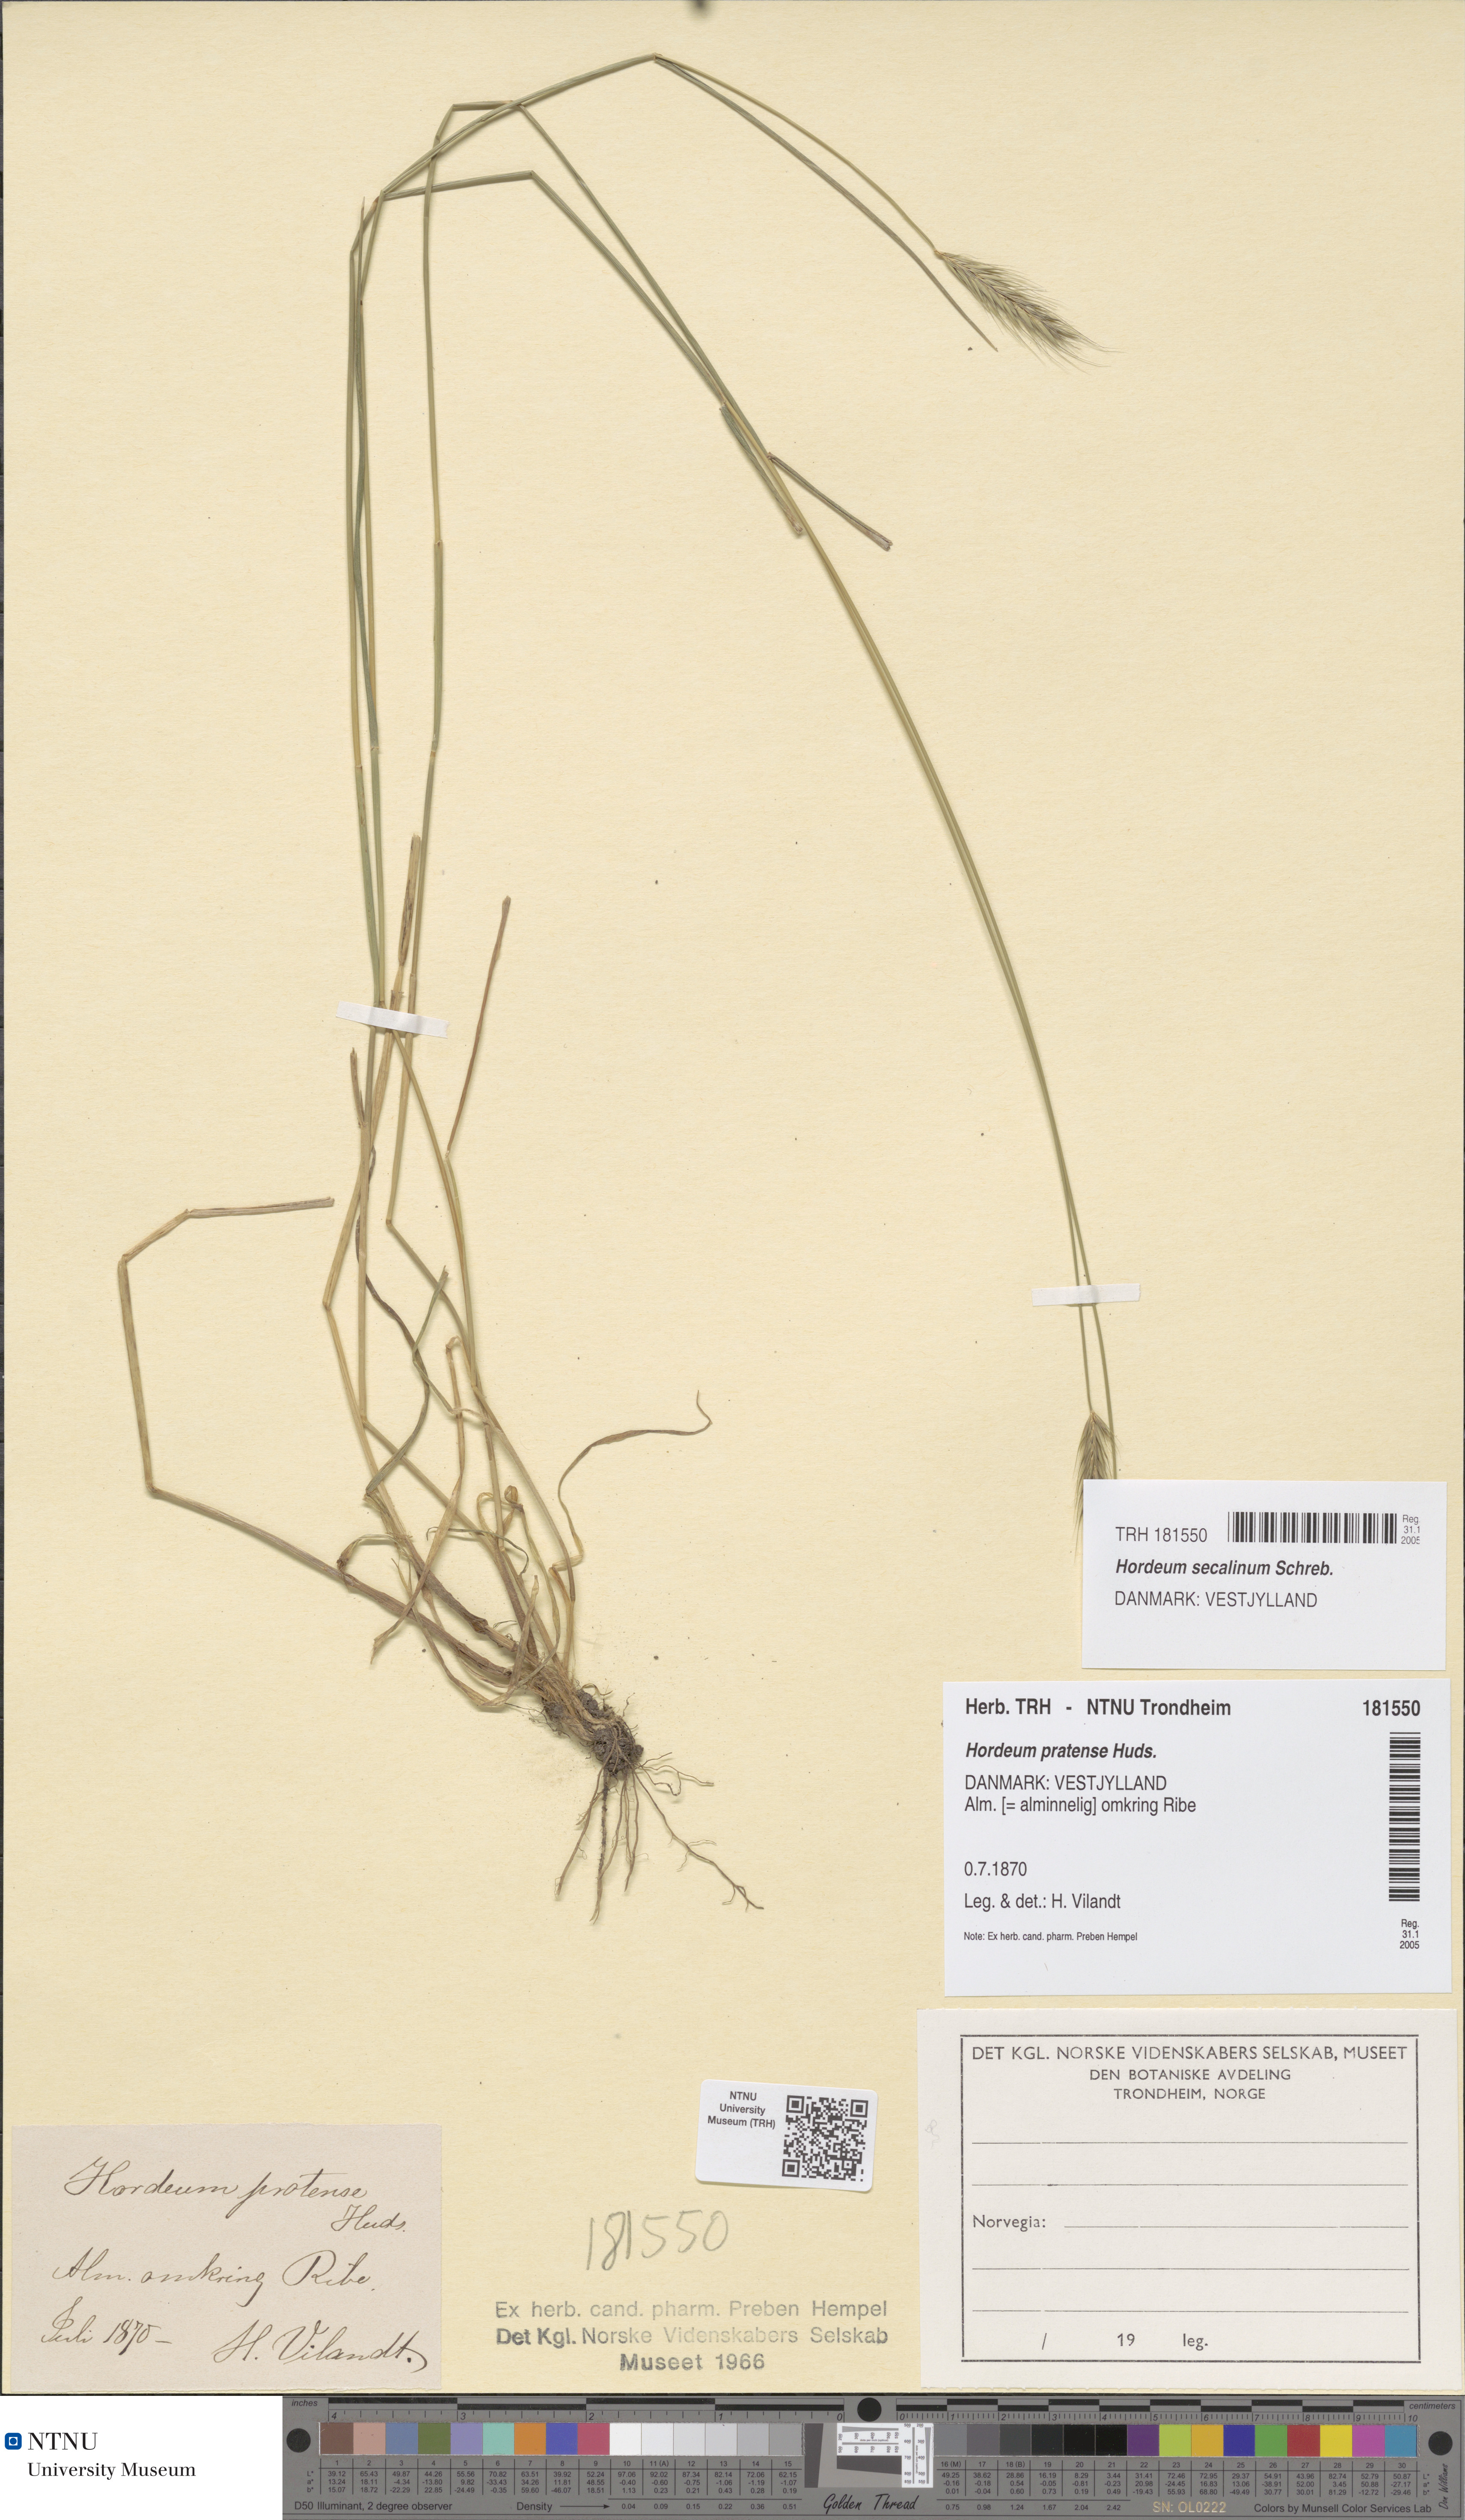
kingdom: Plantae
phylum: Tracheophyta
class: Liliopsida
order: Poales
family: Poaceae
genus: Hordeum
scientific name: Hordeum secalinum
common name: Meadow barley
